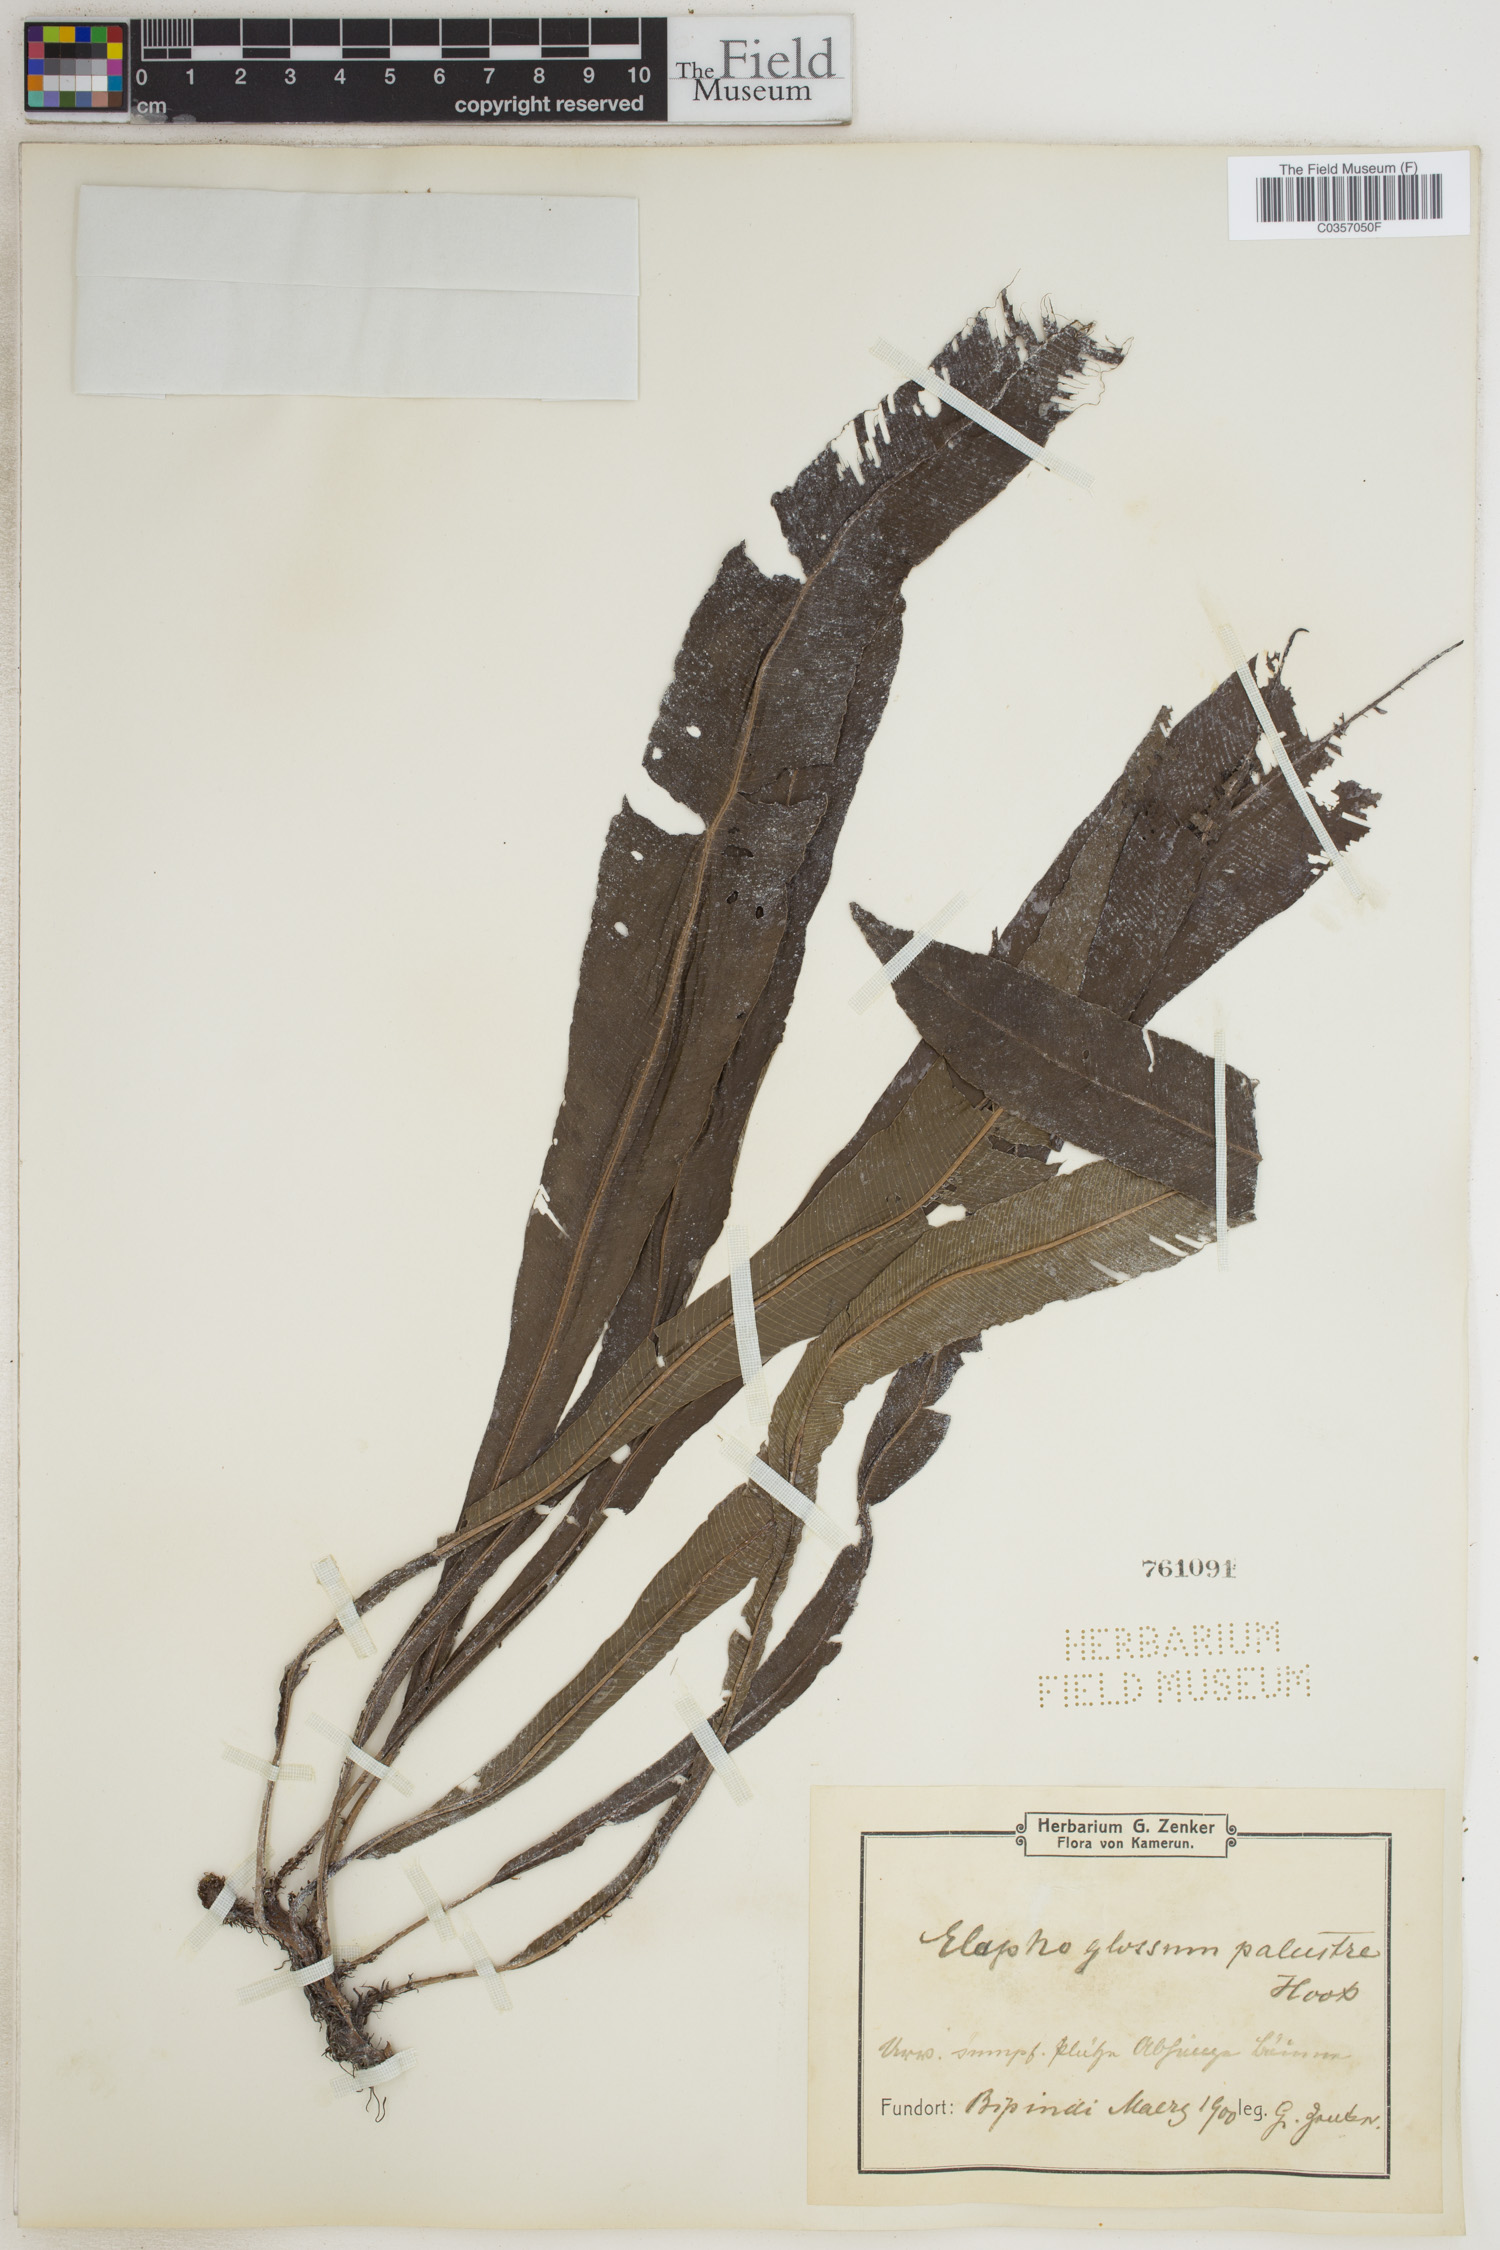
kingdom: Plantae
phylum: Tracheophyta
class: Polypodiopsida
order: Polypodiales
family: Lomariopsidaceae
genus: Lomariopsis
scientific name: Lomariopsis palustris
